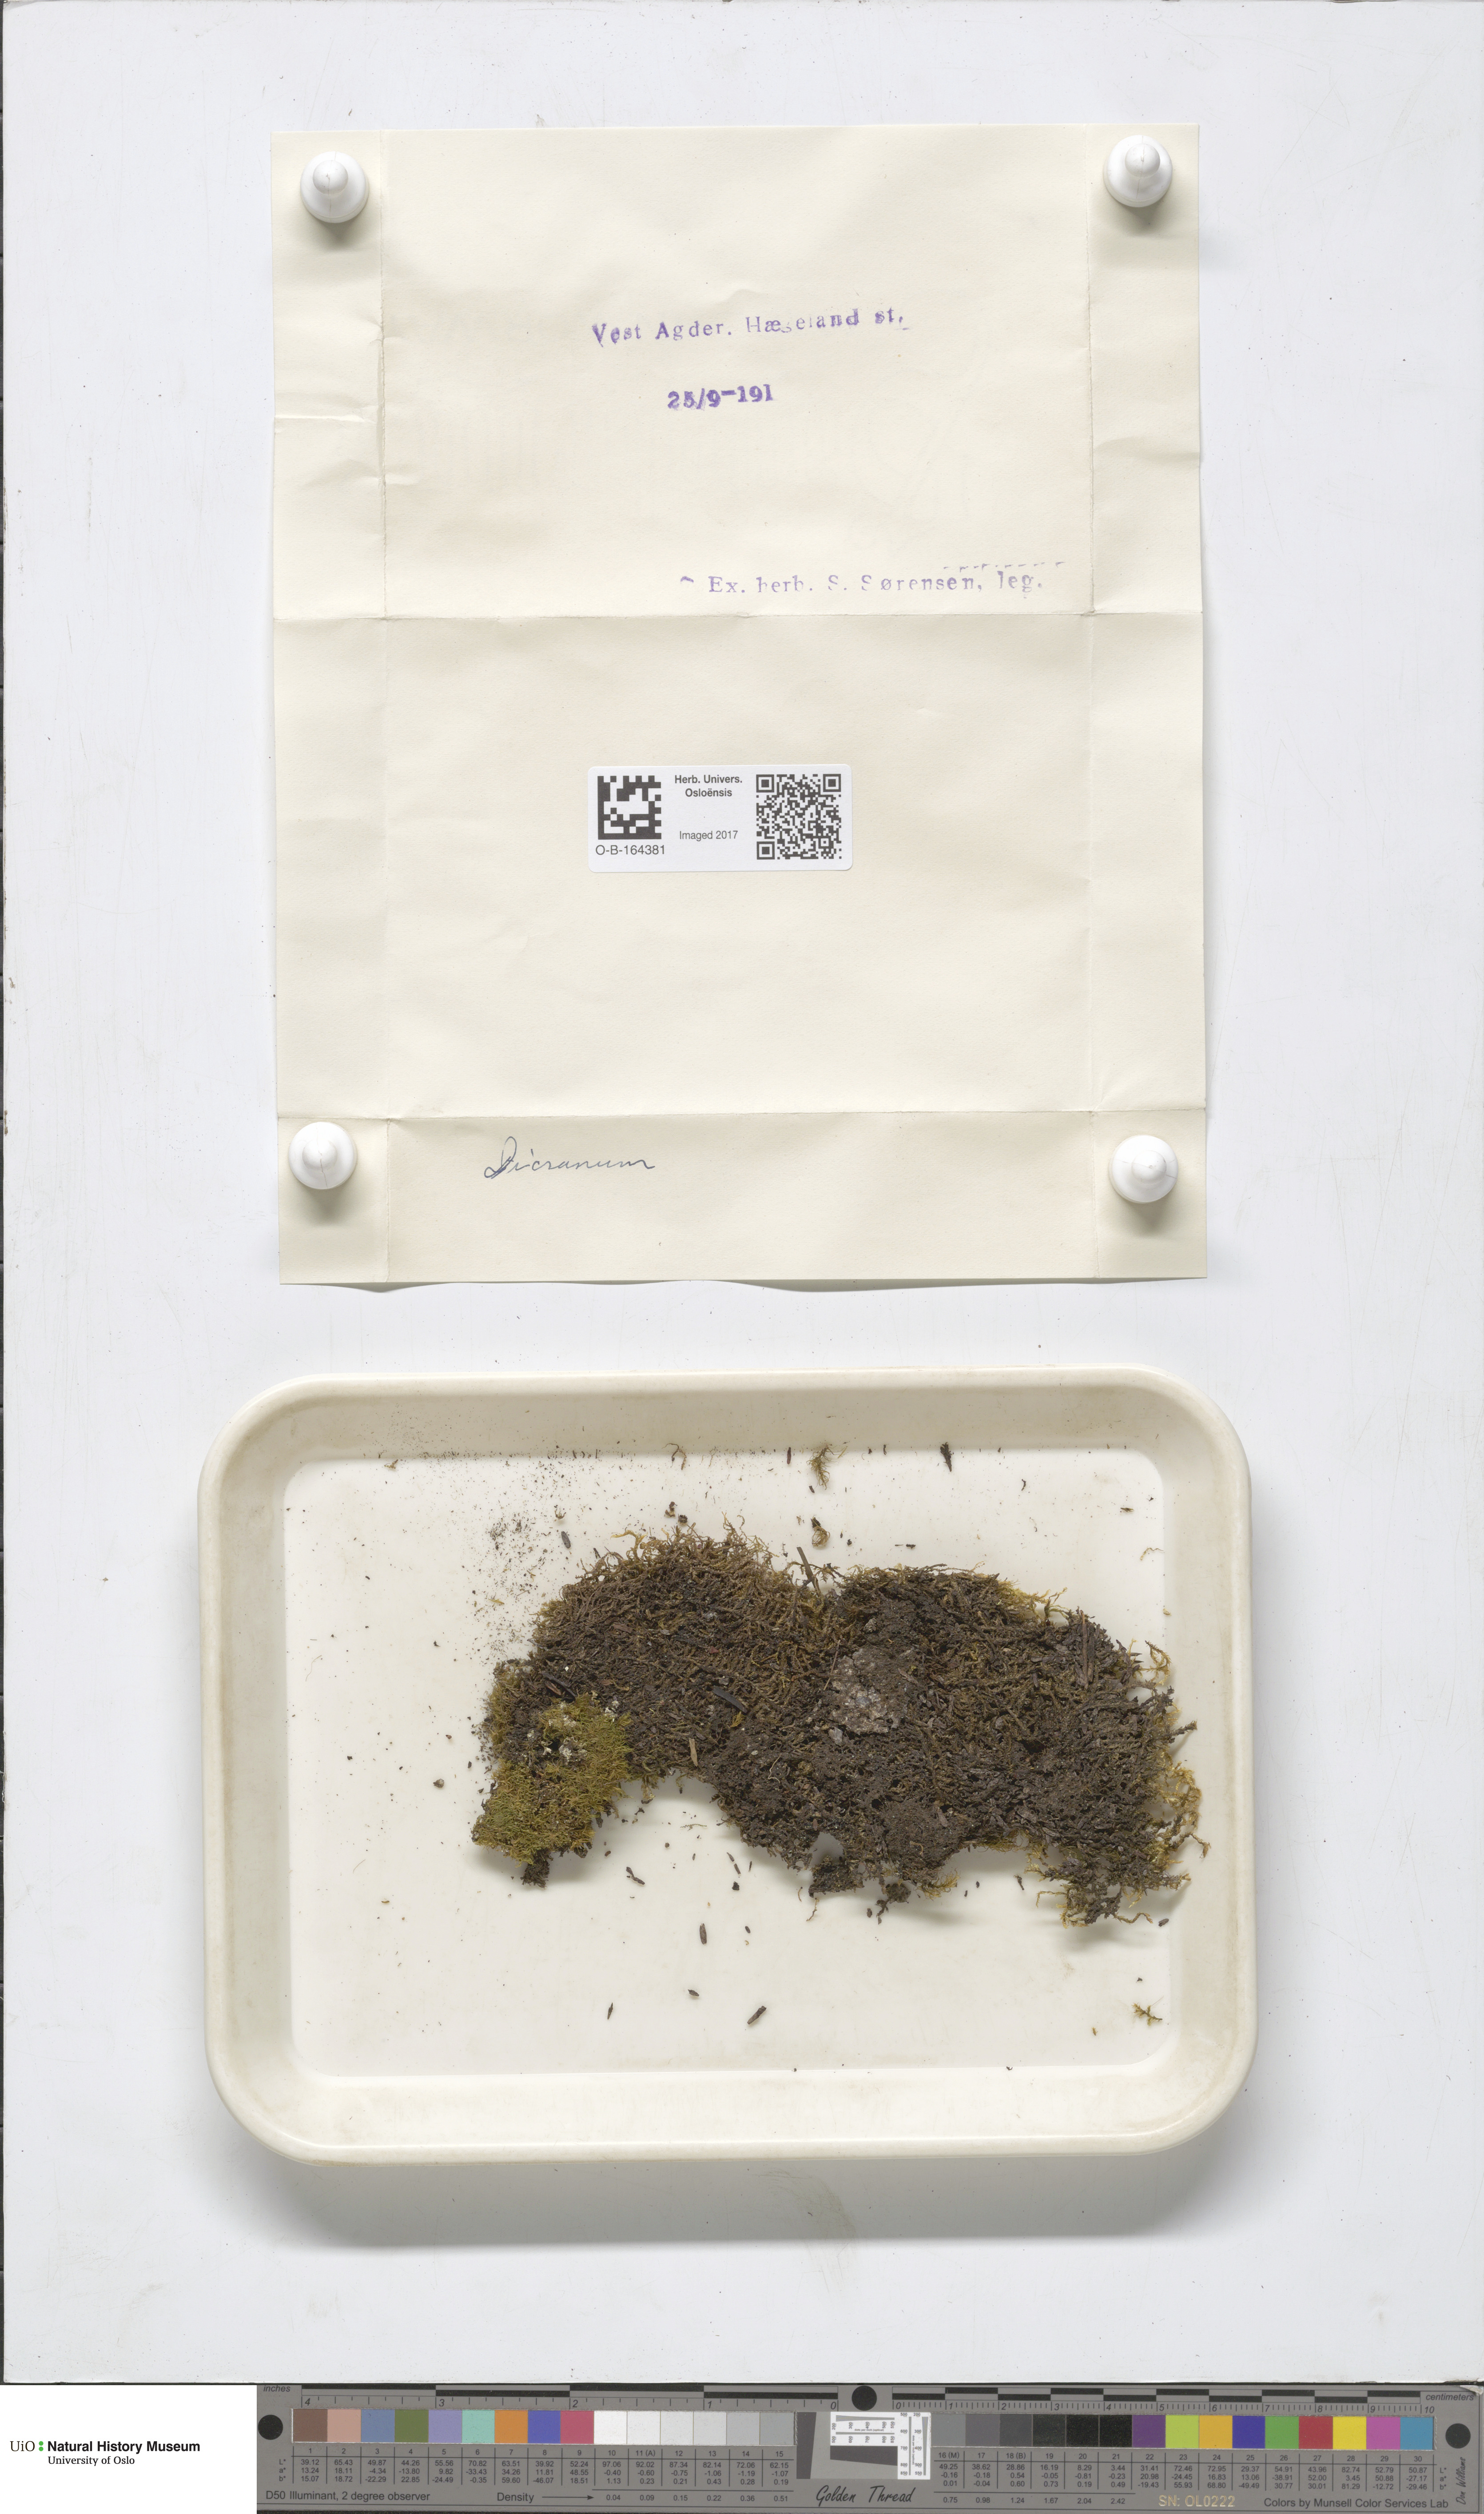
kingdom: Plantae
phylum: Bryophyta
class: Bryopsida
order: Dicranales
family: Dicranaceae
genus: Dicranum
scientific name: Dicranum
